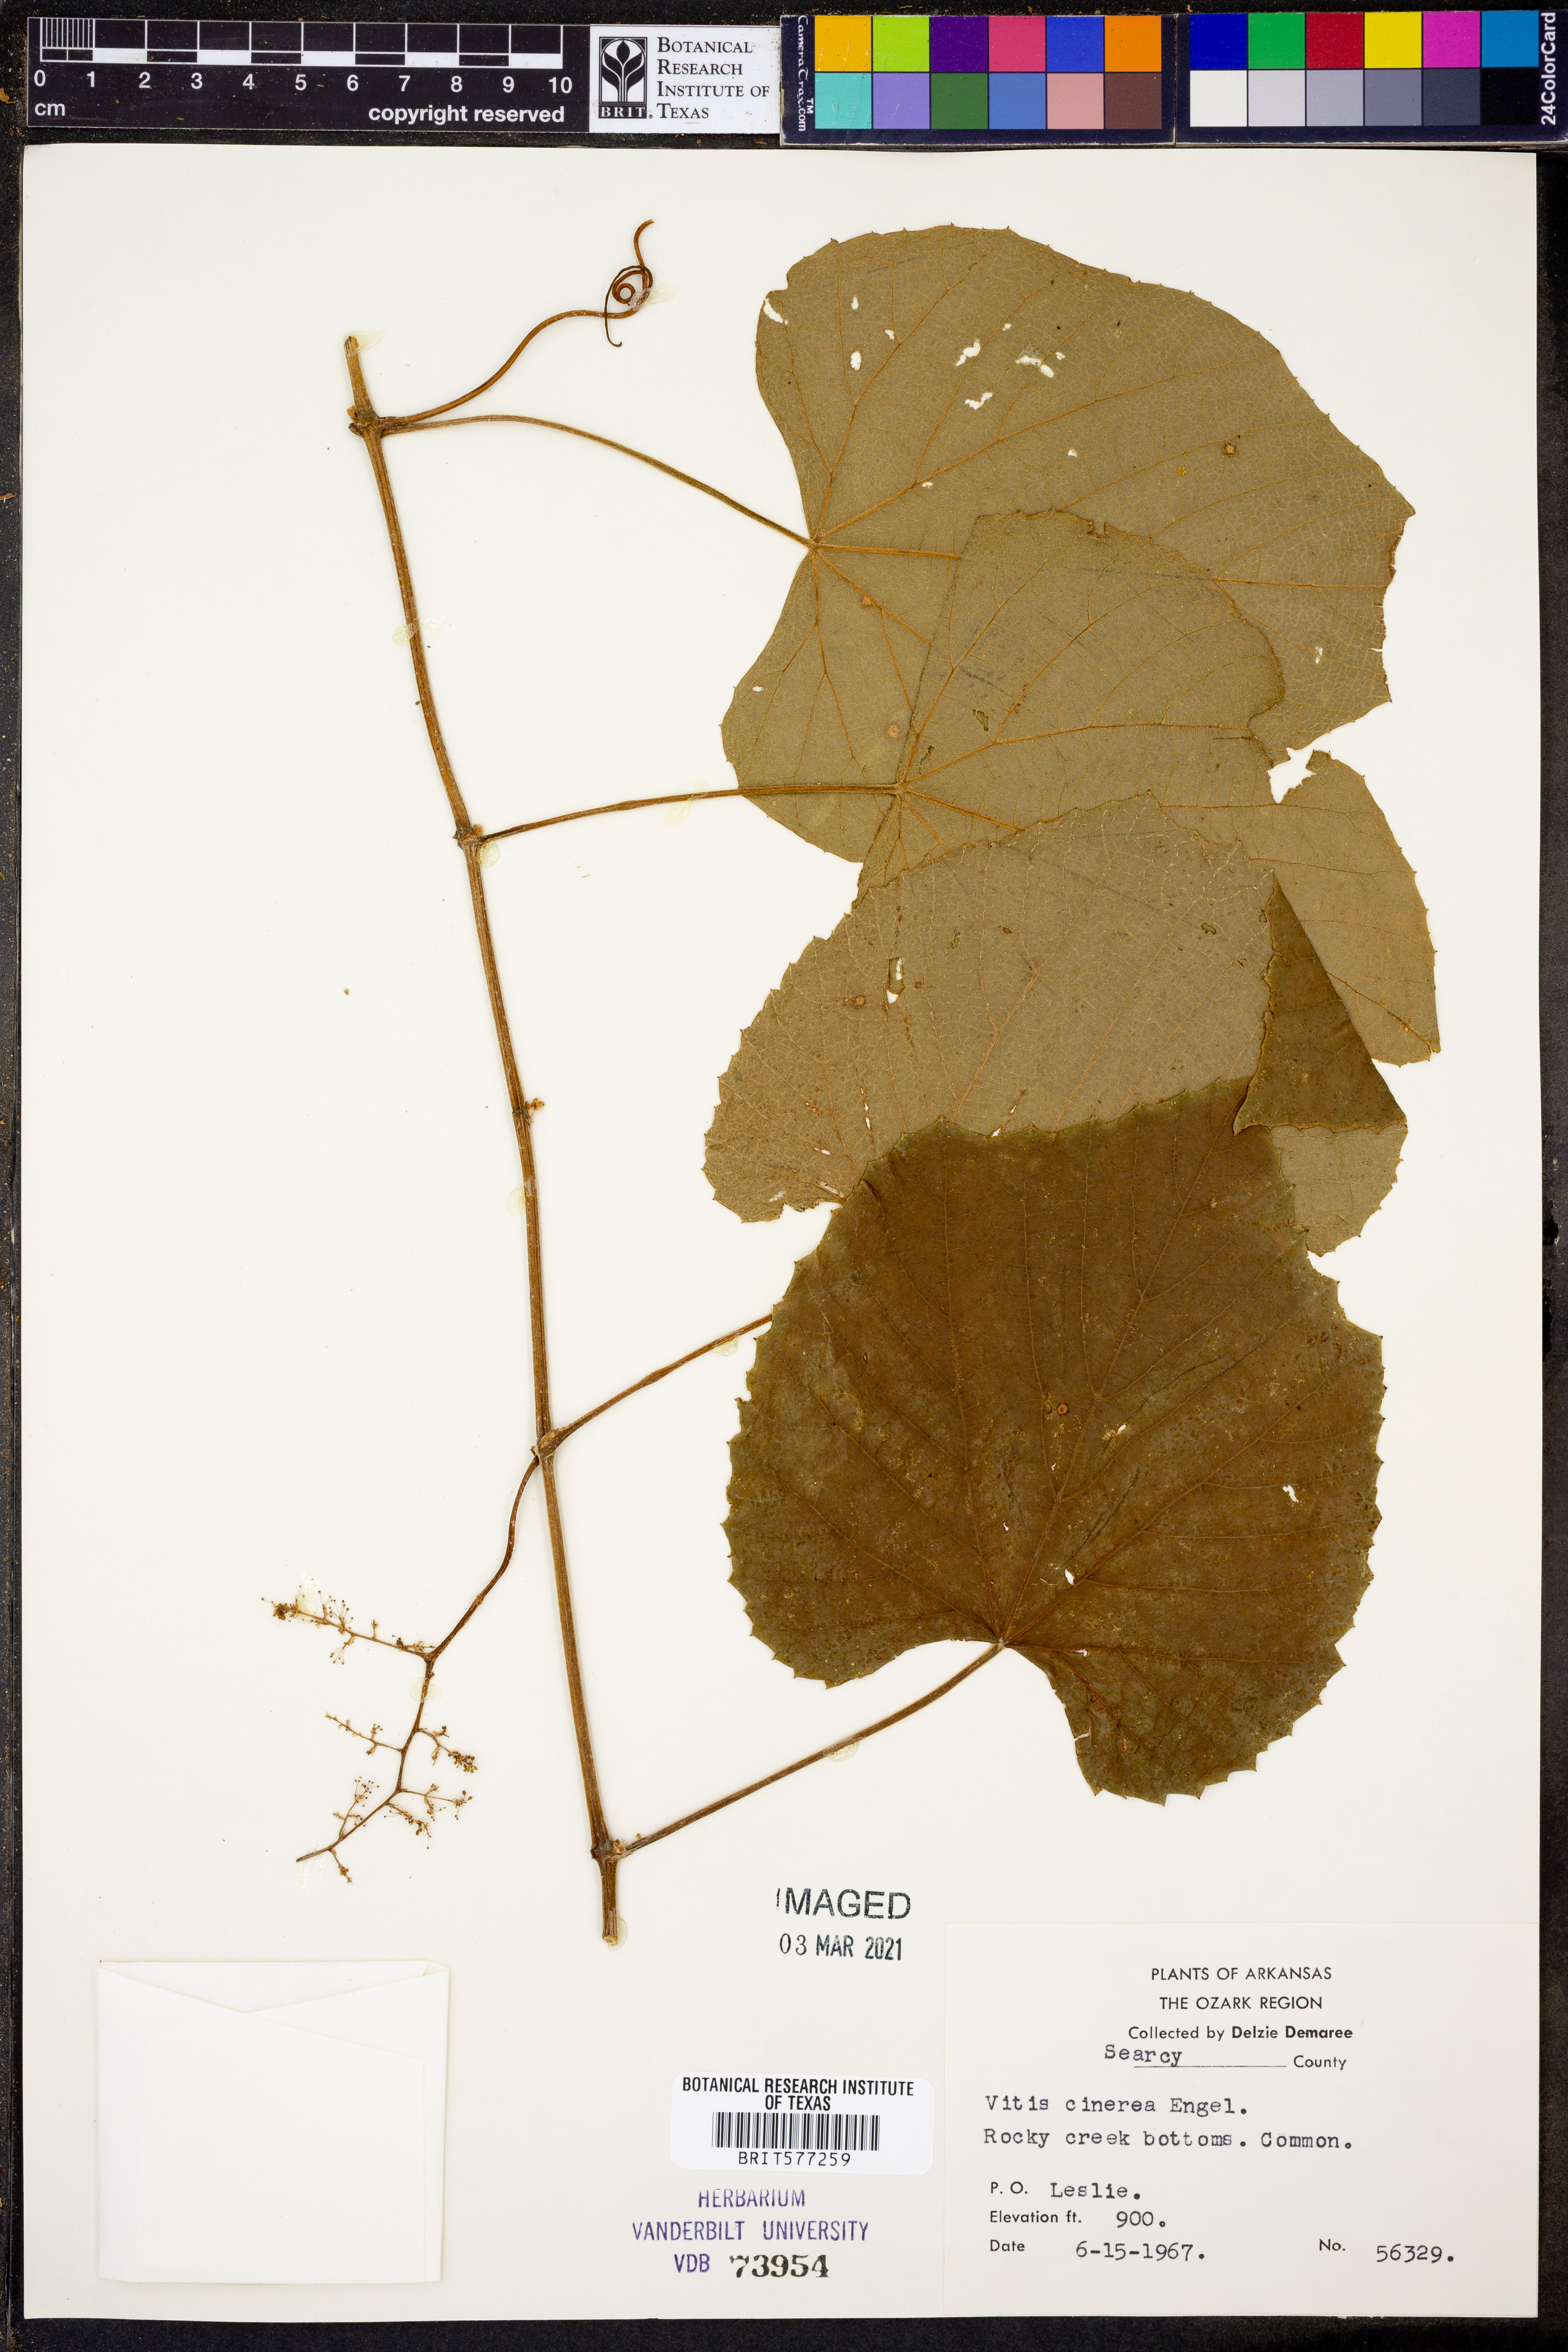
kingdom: Plantae
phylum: Tracheophyta
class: Magnoliopsida
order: Vitales
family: Vitaceae
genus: Vitis
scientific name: Vitis cinerea
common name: Ashy grape
